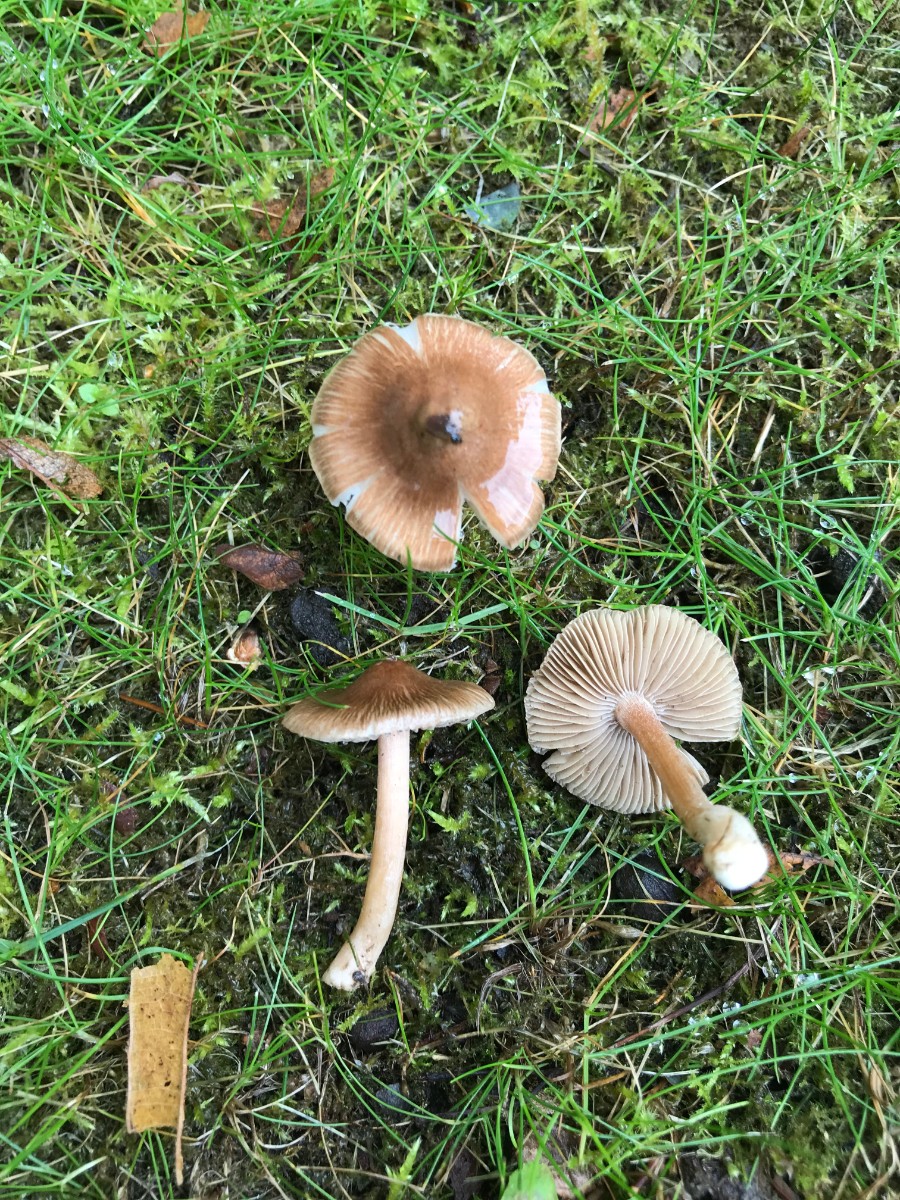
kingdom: Fungi
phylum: Basidiomycota
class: Agaricomycetes
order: Agaricales
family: Inocybaceae
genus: Inocybe
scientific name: Inocybe
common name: trævlhat
